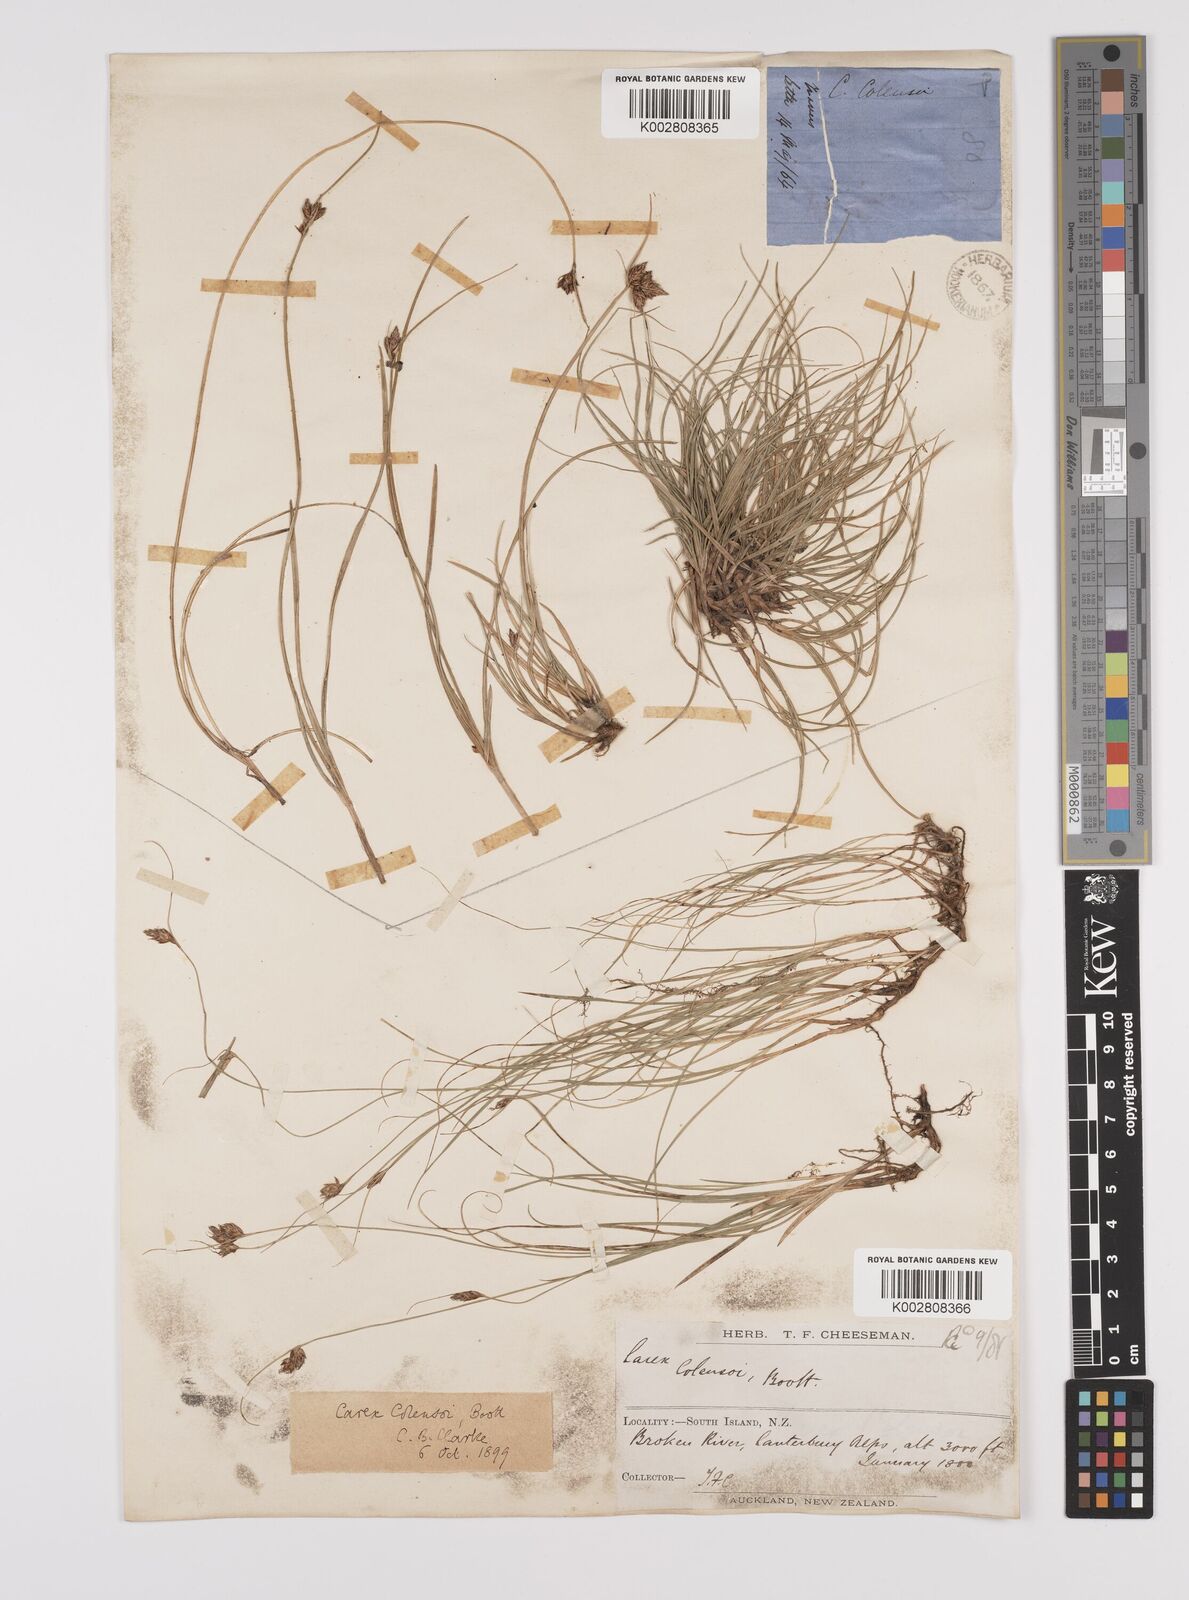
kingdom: Plantae
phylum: Tracheophyta
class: Liliopsida
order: Poales
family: Cyperaceae
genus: Carex
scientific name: Carex colensoi
